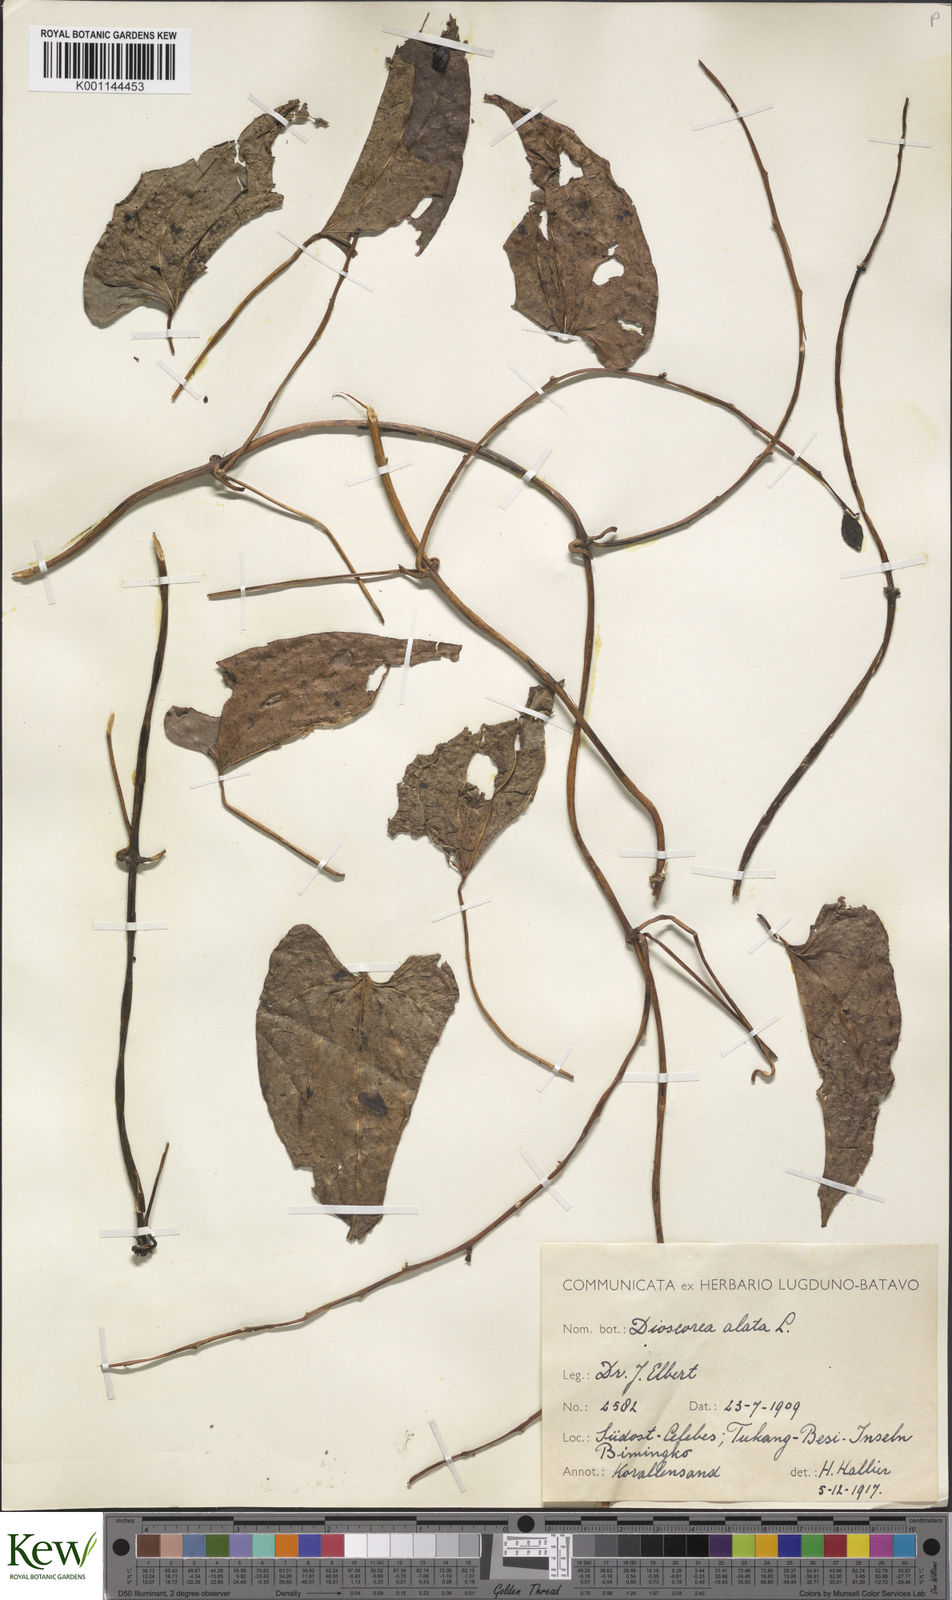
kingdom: Plantae
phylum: Tracheophyta
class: Liliopsida
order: Dioscoreales
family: Dioscoreaceae
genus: Dioscorea
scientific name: Dioscorea alata
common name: Water yam
